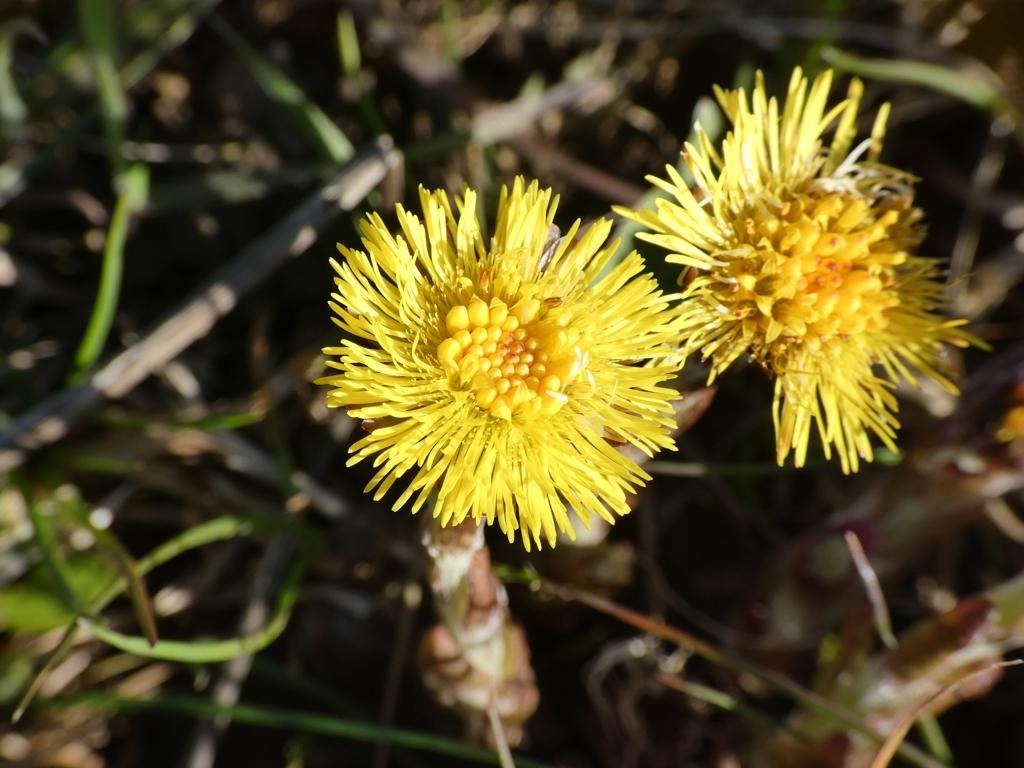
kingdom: Plantae
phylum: Tracheophyta
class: Magnoliopsida
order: Asterales
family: Asteraceae
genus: Tussilago
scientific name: Tussilago farfara
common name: Følfod
